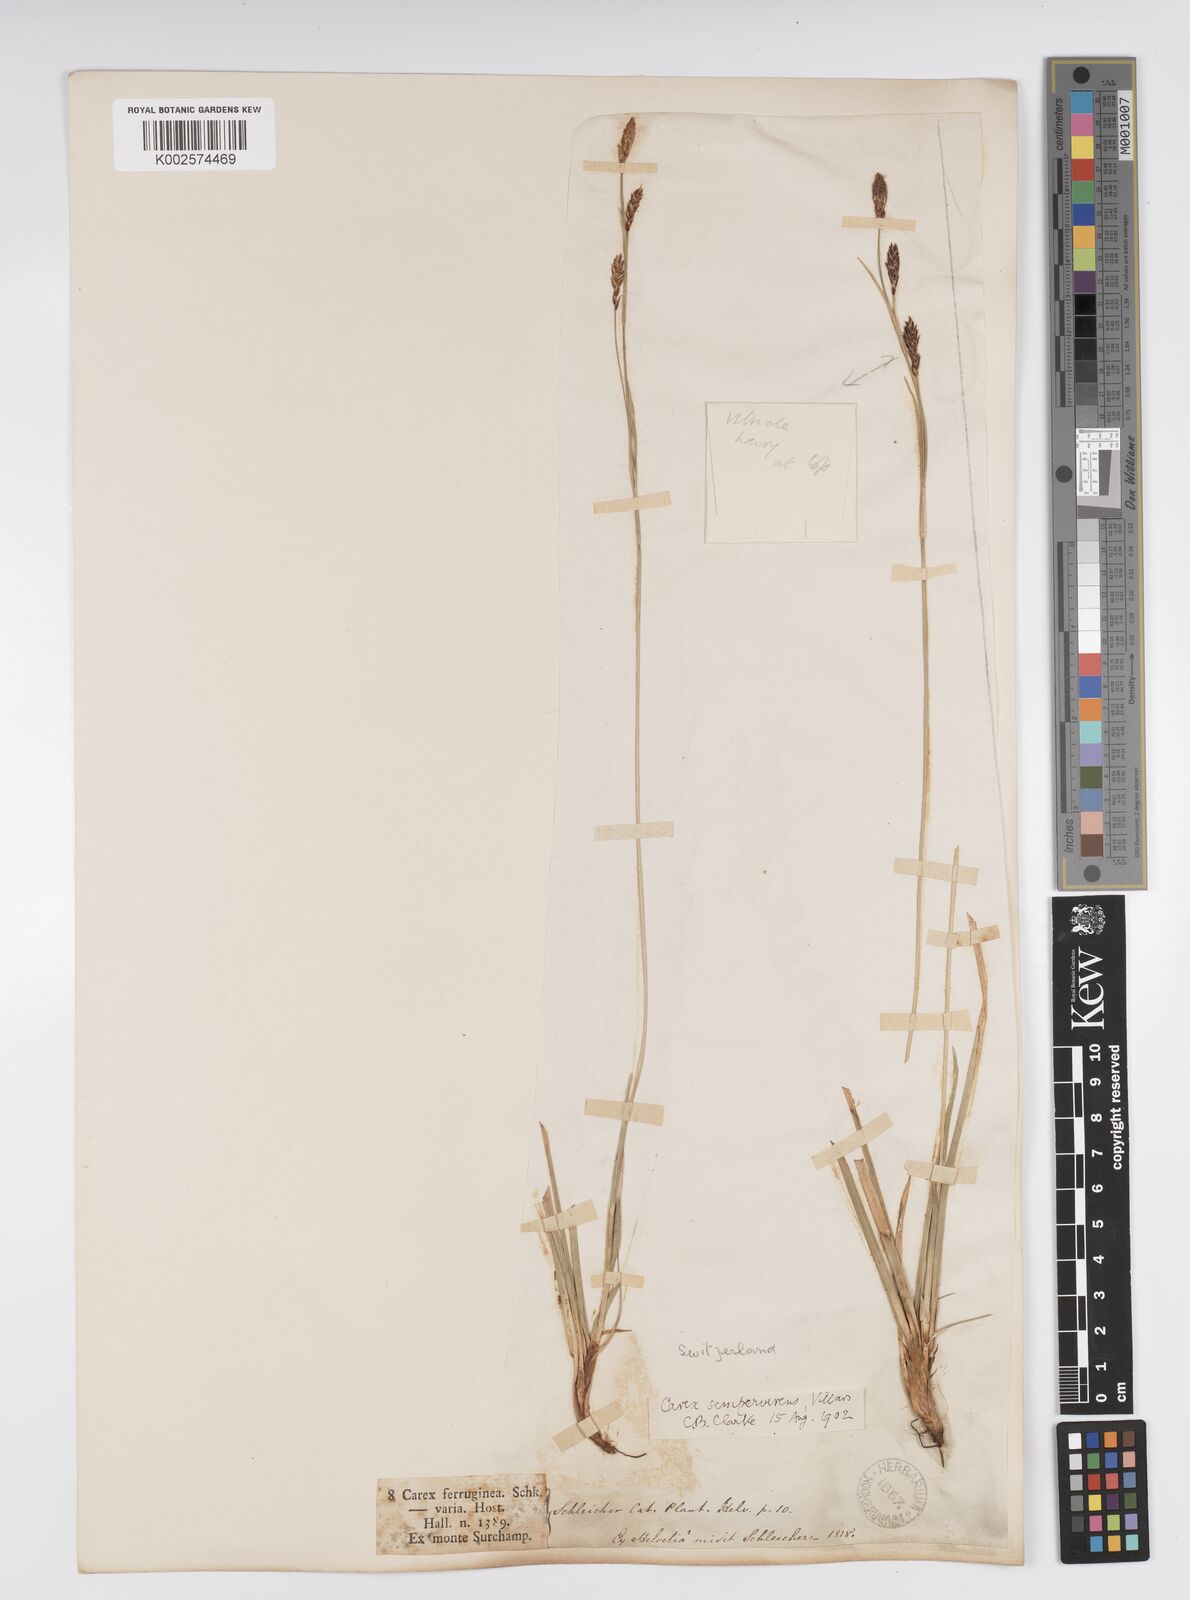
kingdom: Plantae
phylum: Tracheophyta
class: Liliopsida
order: Poales
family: Cyperaceae
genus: Carex
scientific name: Carex sempervirens
